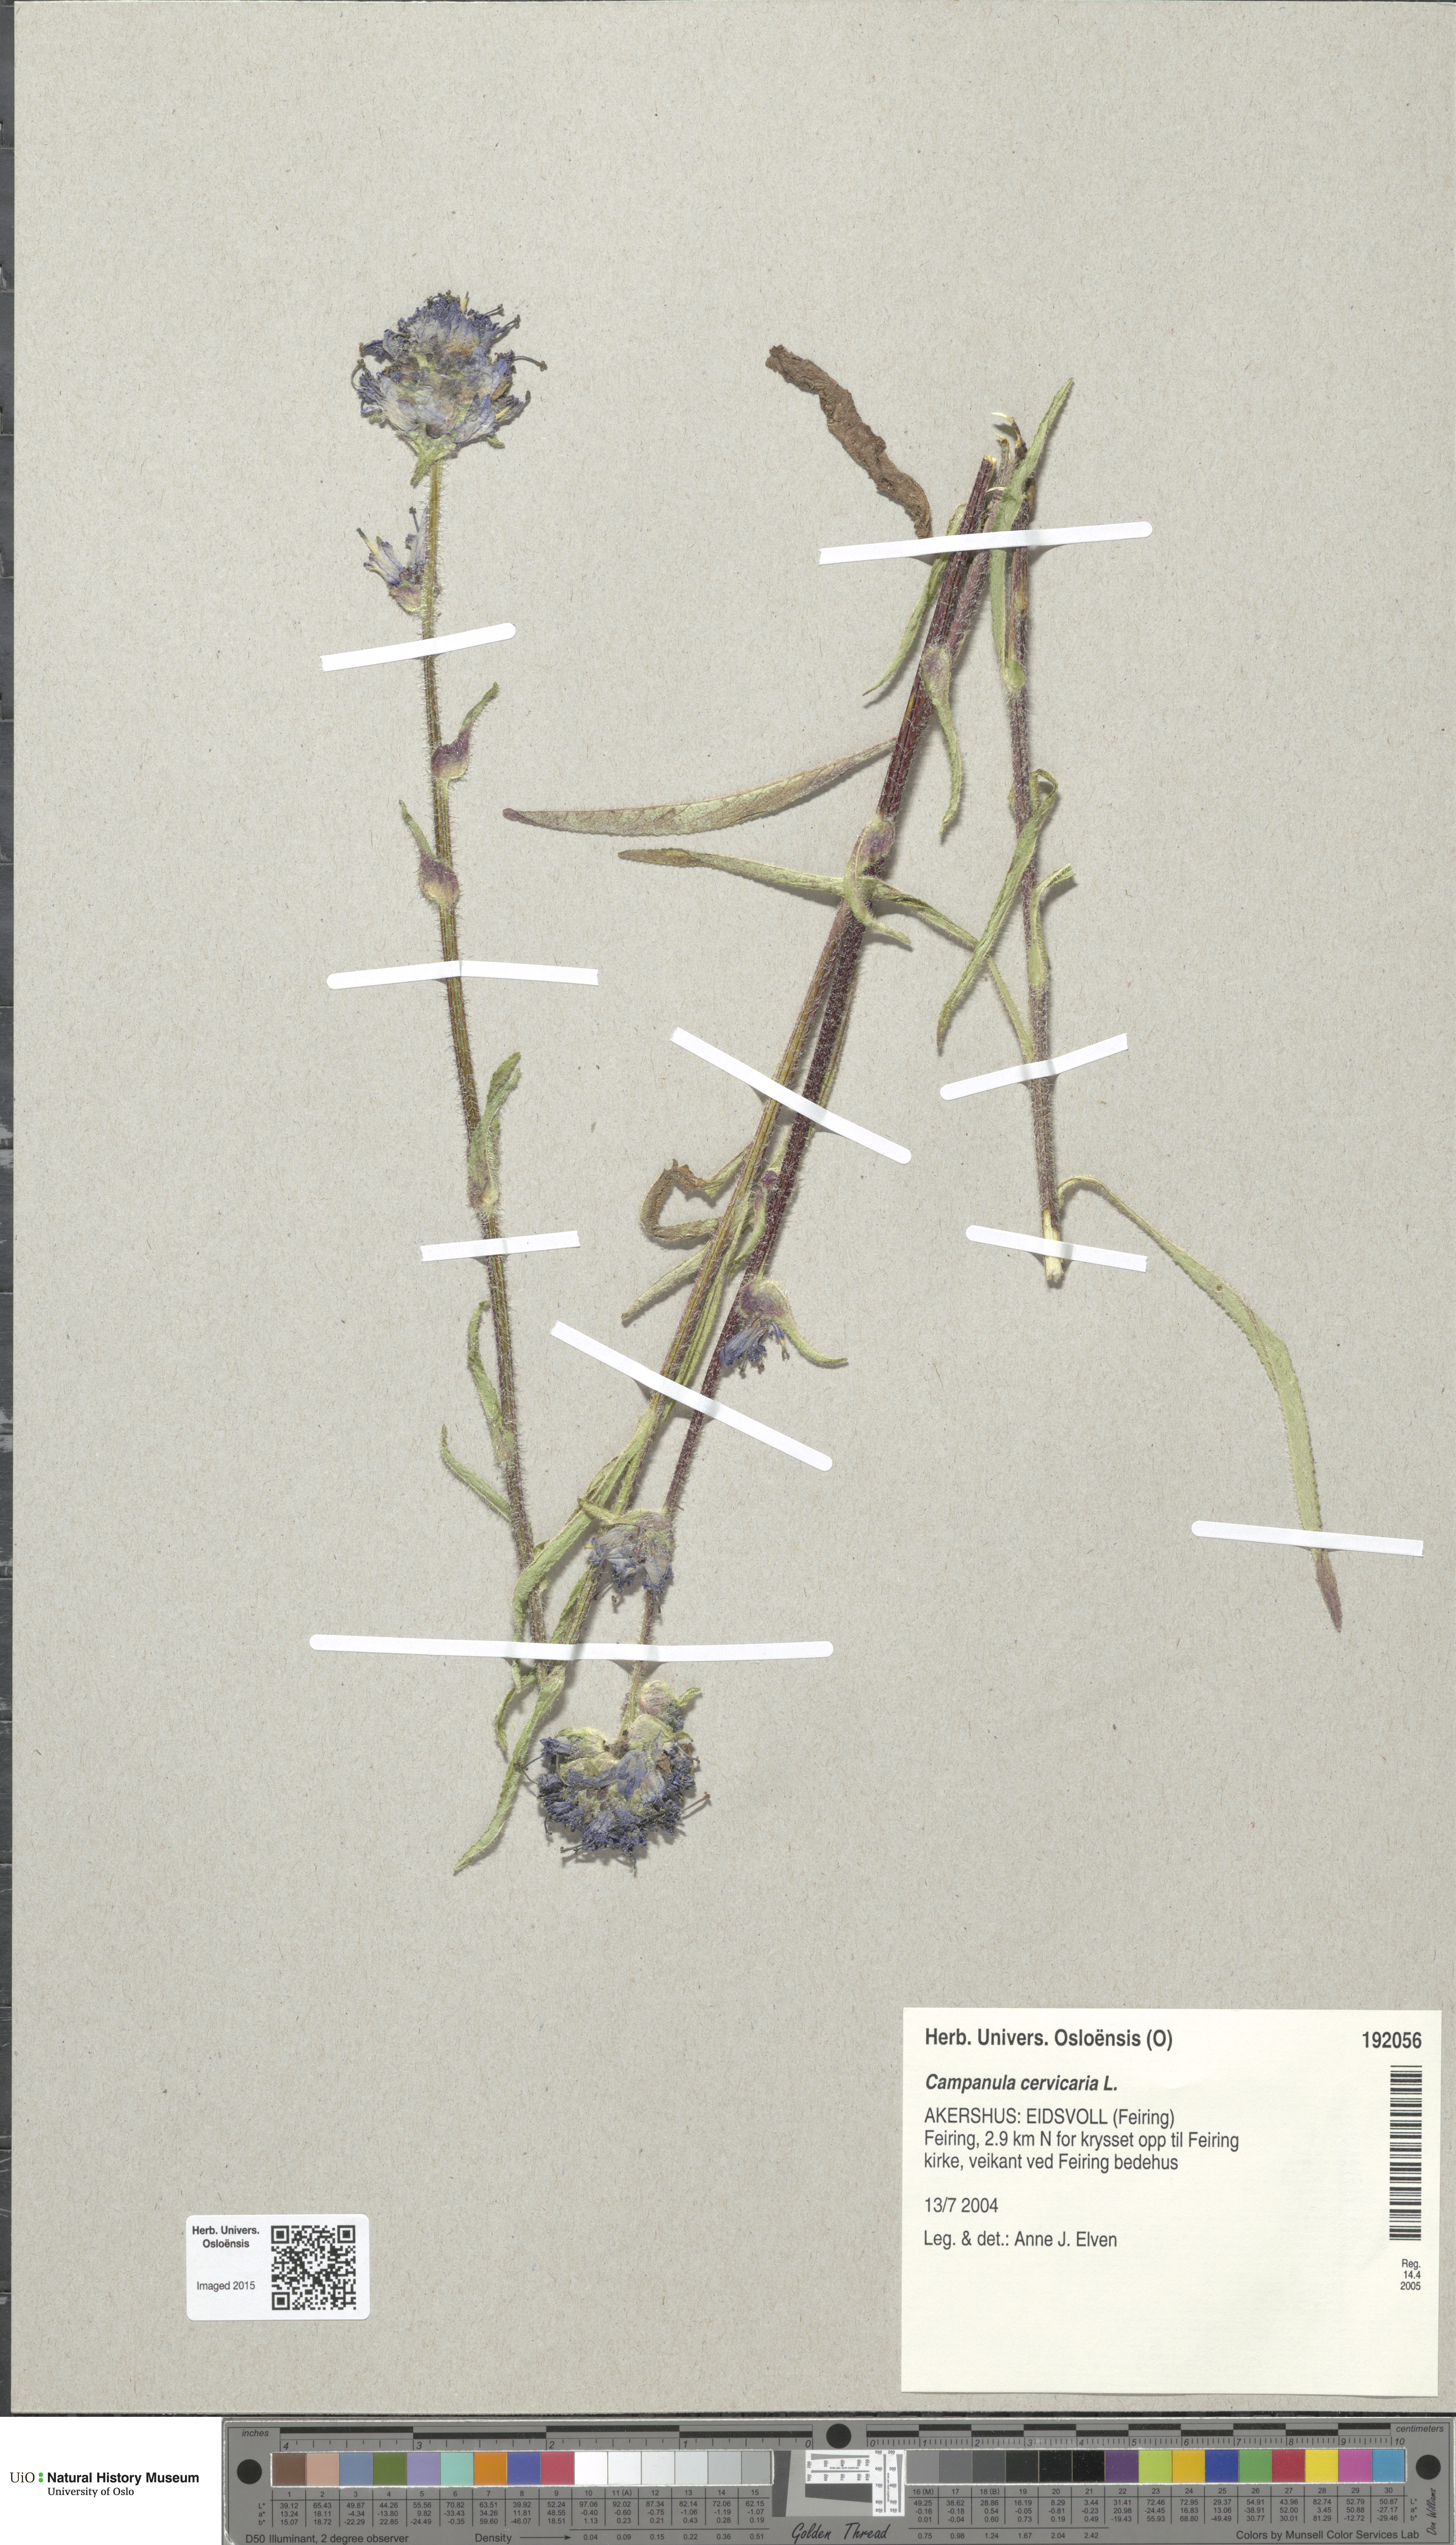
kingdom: Plantae
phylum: Tracheophyta
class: Magnoliopsida
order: Asterales
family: Campanulaceae
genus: Campanula
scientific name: Campanula cervicaria
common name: Bristly bellflower
